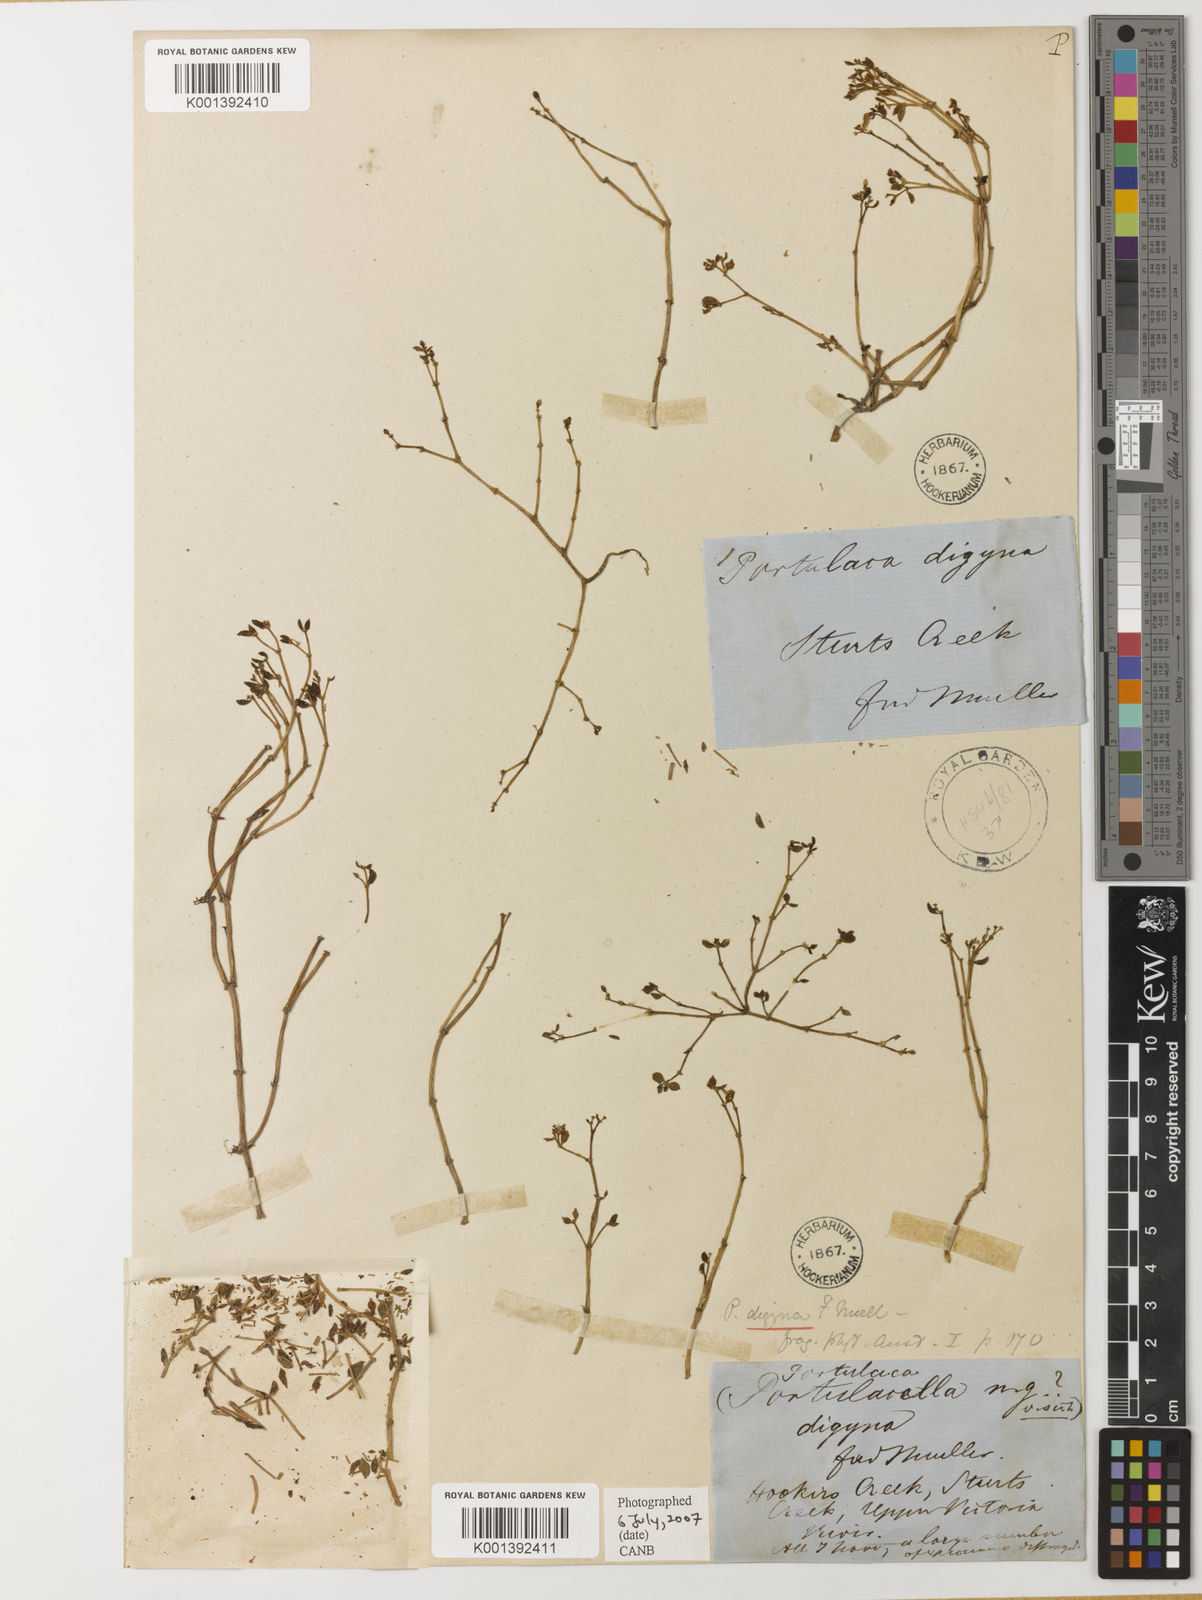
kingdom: Plantae
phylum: Tracheophyta
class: Magnoliopsida
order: Caryophyllales
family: Portulacaceae
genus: Portulaca
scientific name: Portulaca digyna
